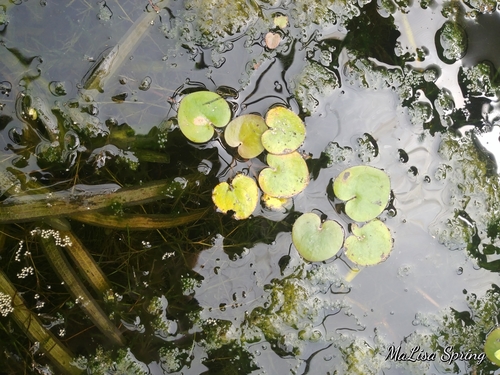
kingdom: Plantae
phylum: Tracheophyta
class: Liliopsida
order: Alismatales
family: Hydrocharitaceae
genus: Hydrocharis
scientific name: Hydrocharis morsus-ranae
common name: European frog-bit
